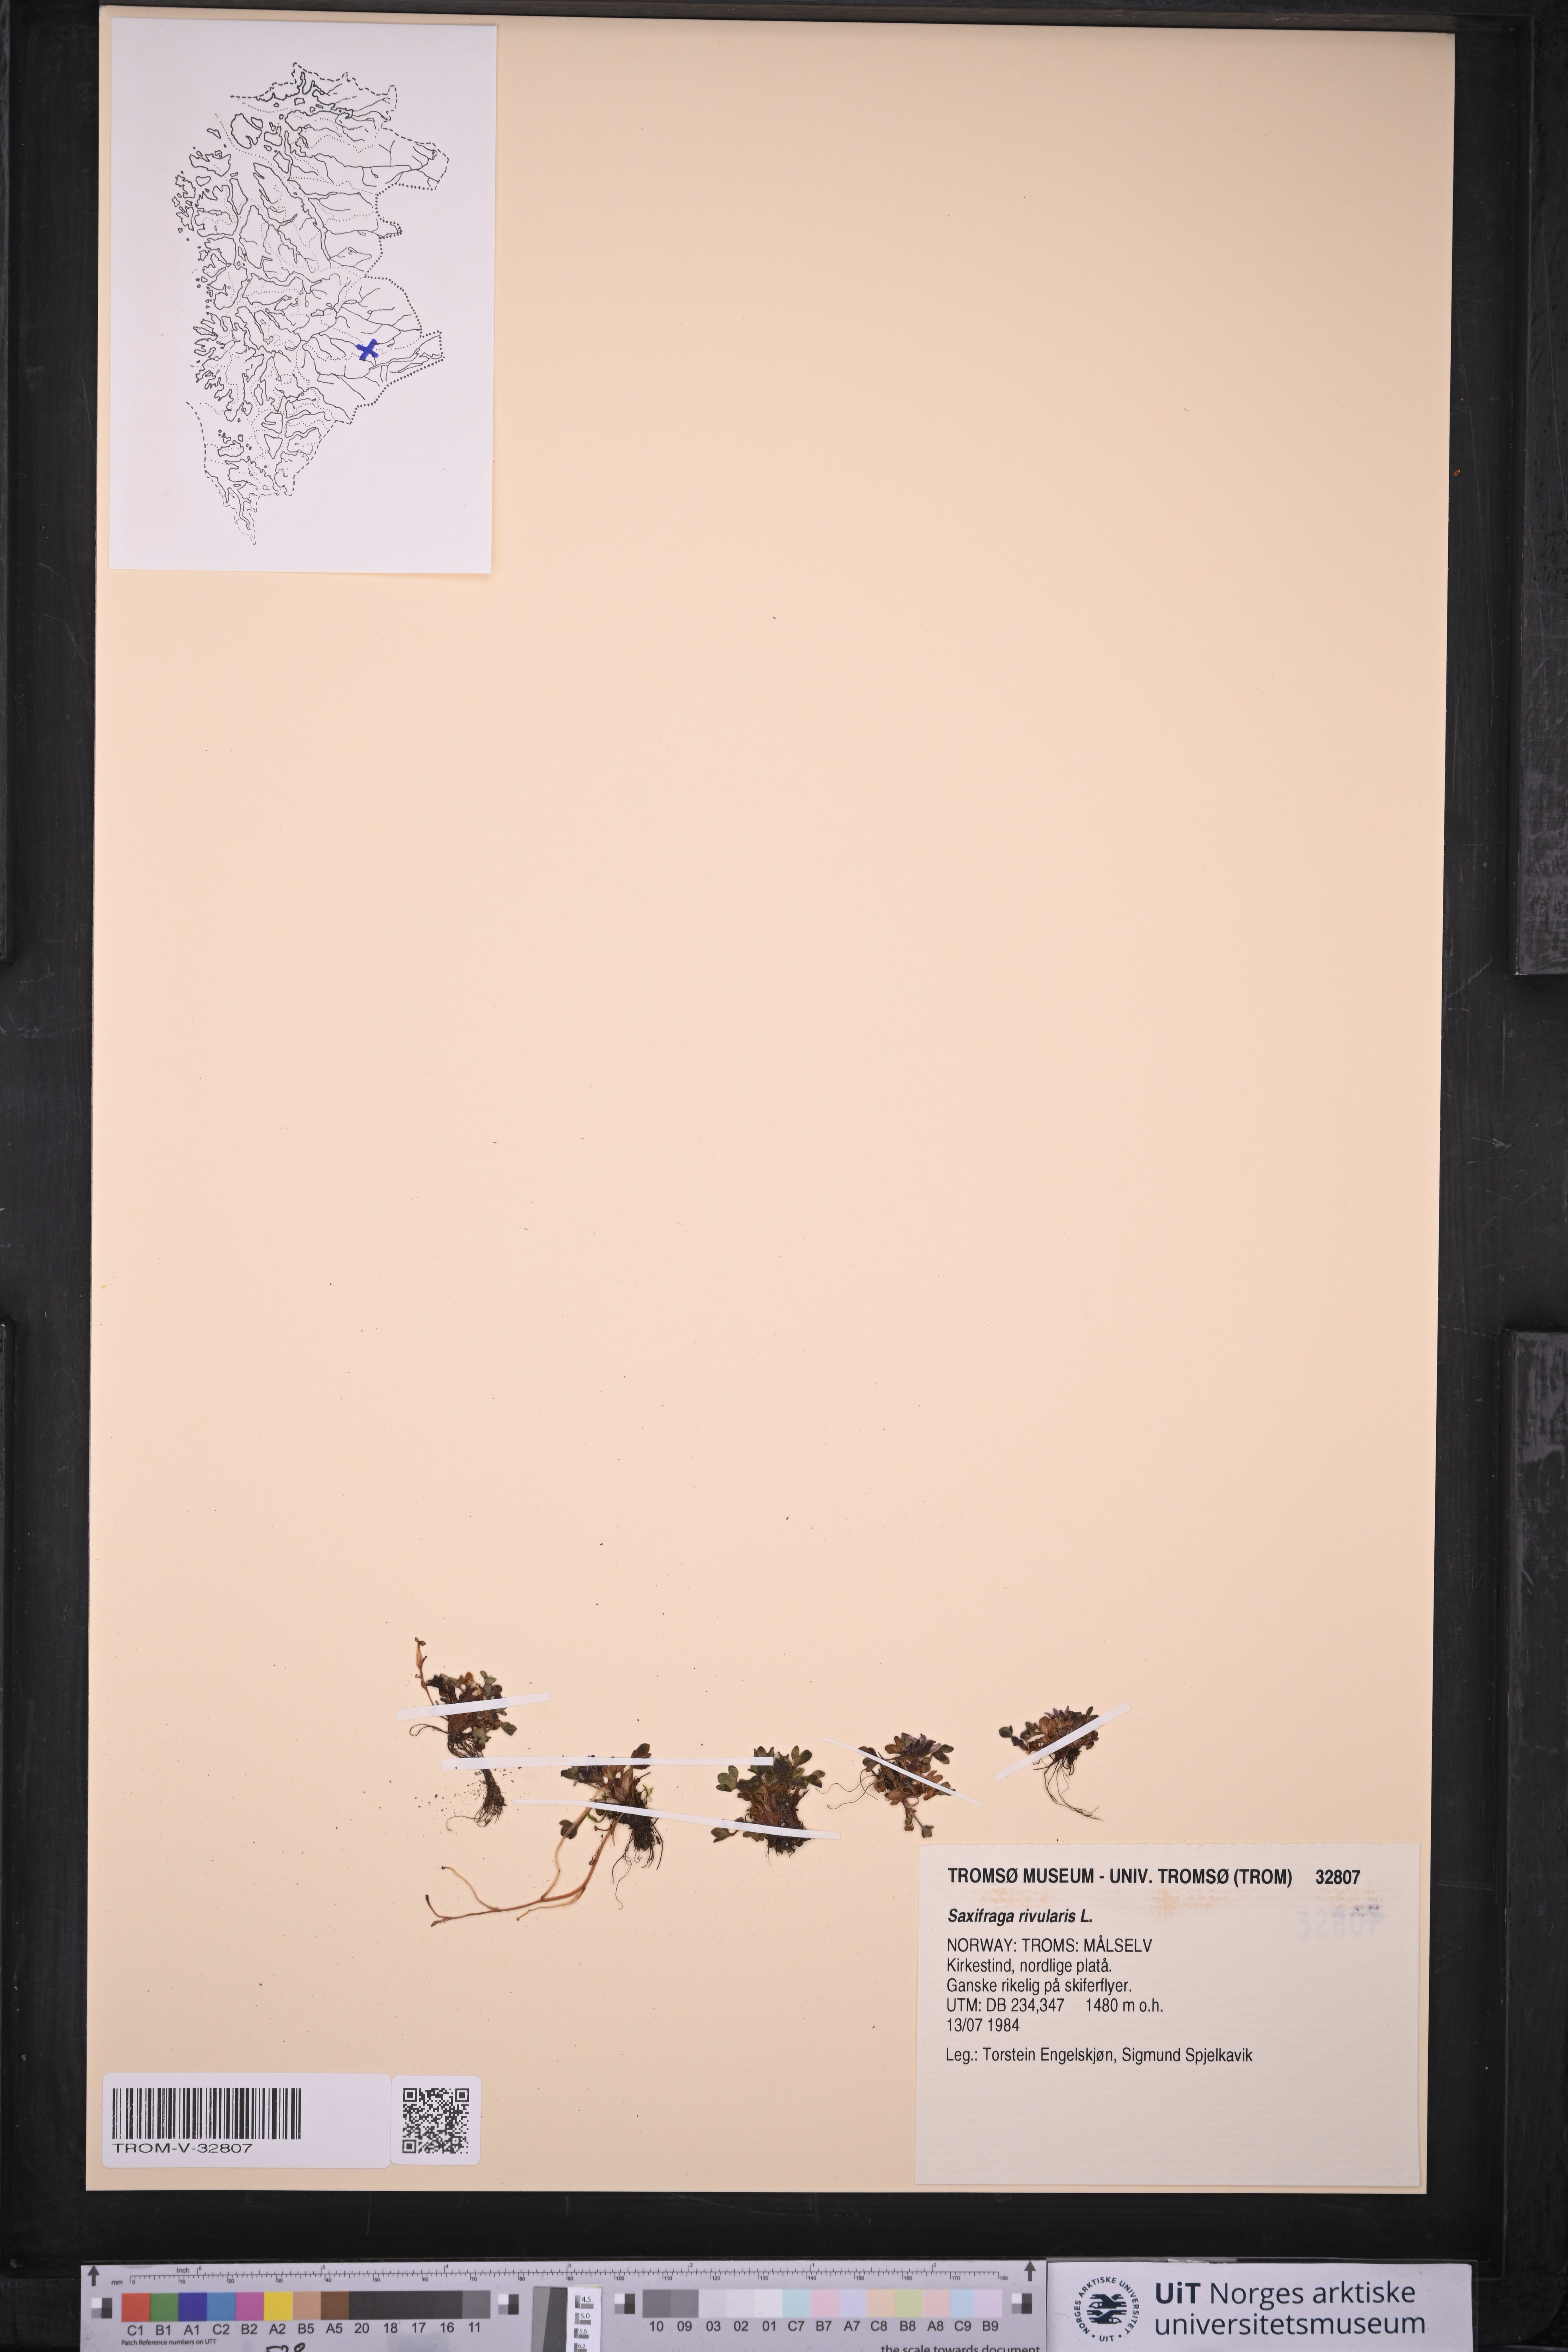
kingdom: Plantae
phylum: Tracheophyta
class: Magnoliopsida
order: Saxifragales
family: Saxifragaceae
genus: Saxifraga
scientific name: Saxifraga rivularis
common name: Highland saxifrage
